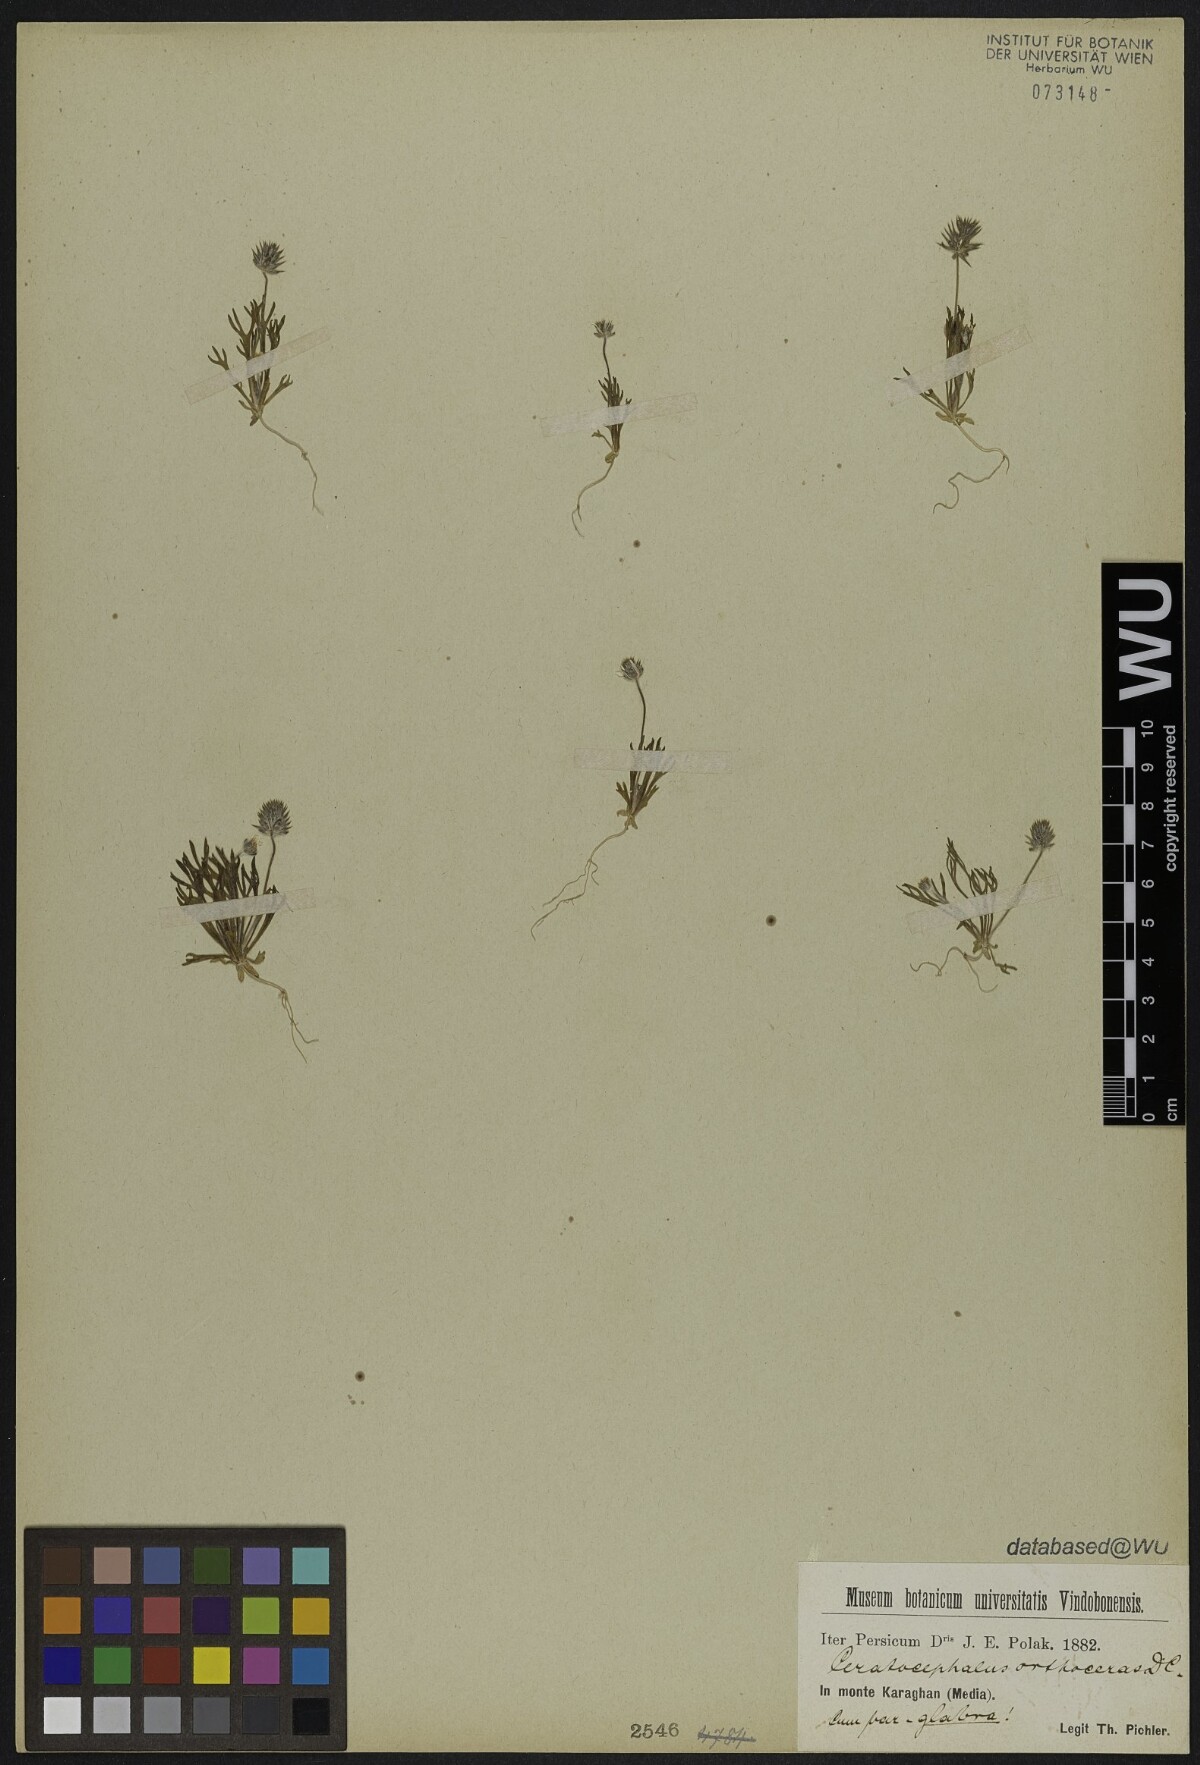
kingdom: Plantae
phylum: Tracheophyta
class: Magnoliopsida
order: Ranunculales
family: Ranunculaceae
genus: Ceratocephala
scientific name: Ceratocephala orthoceras
